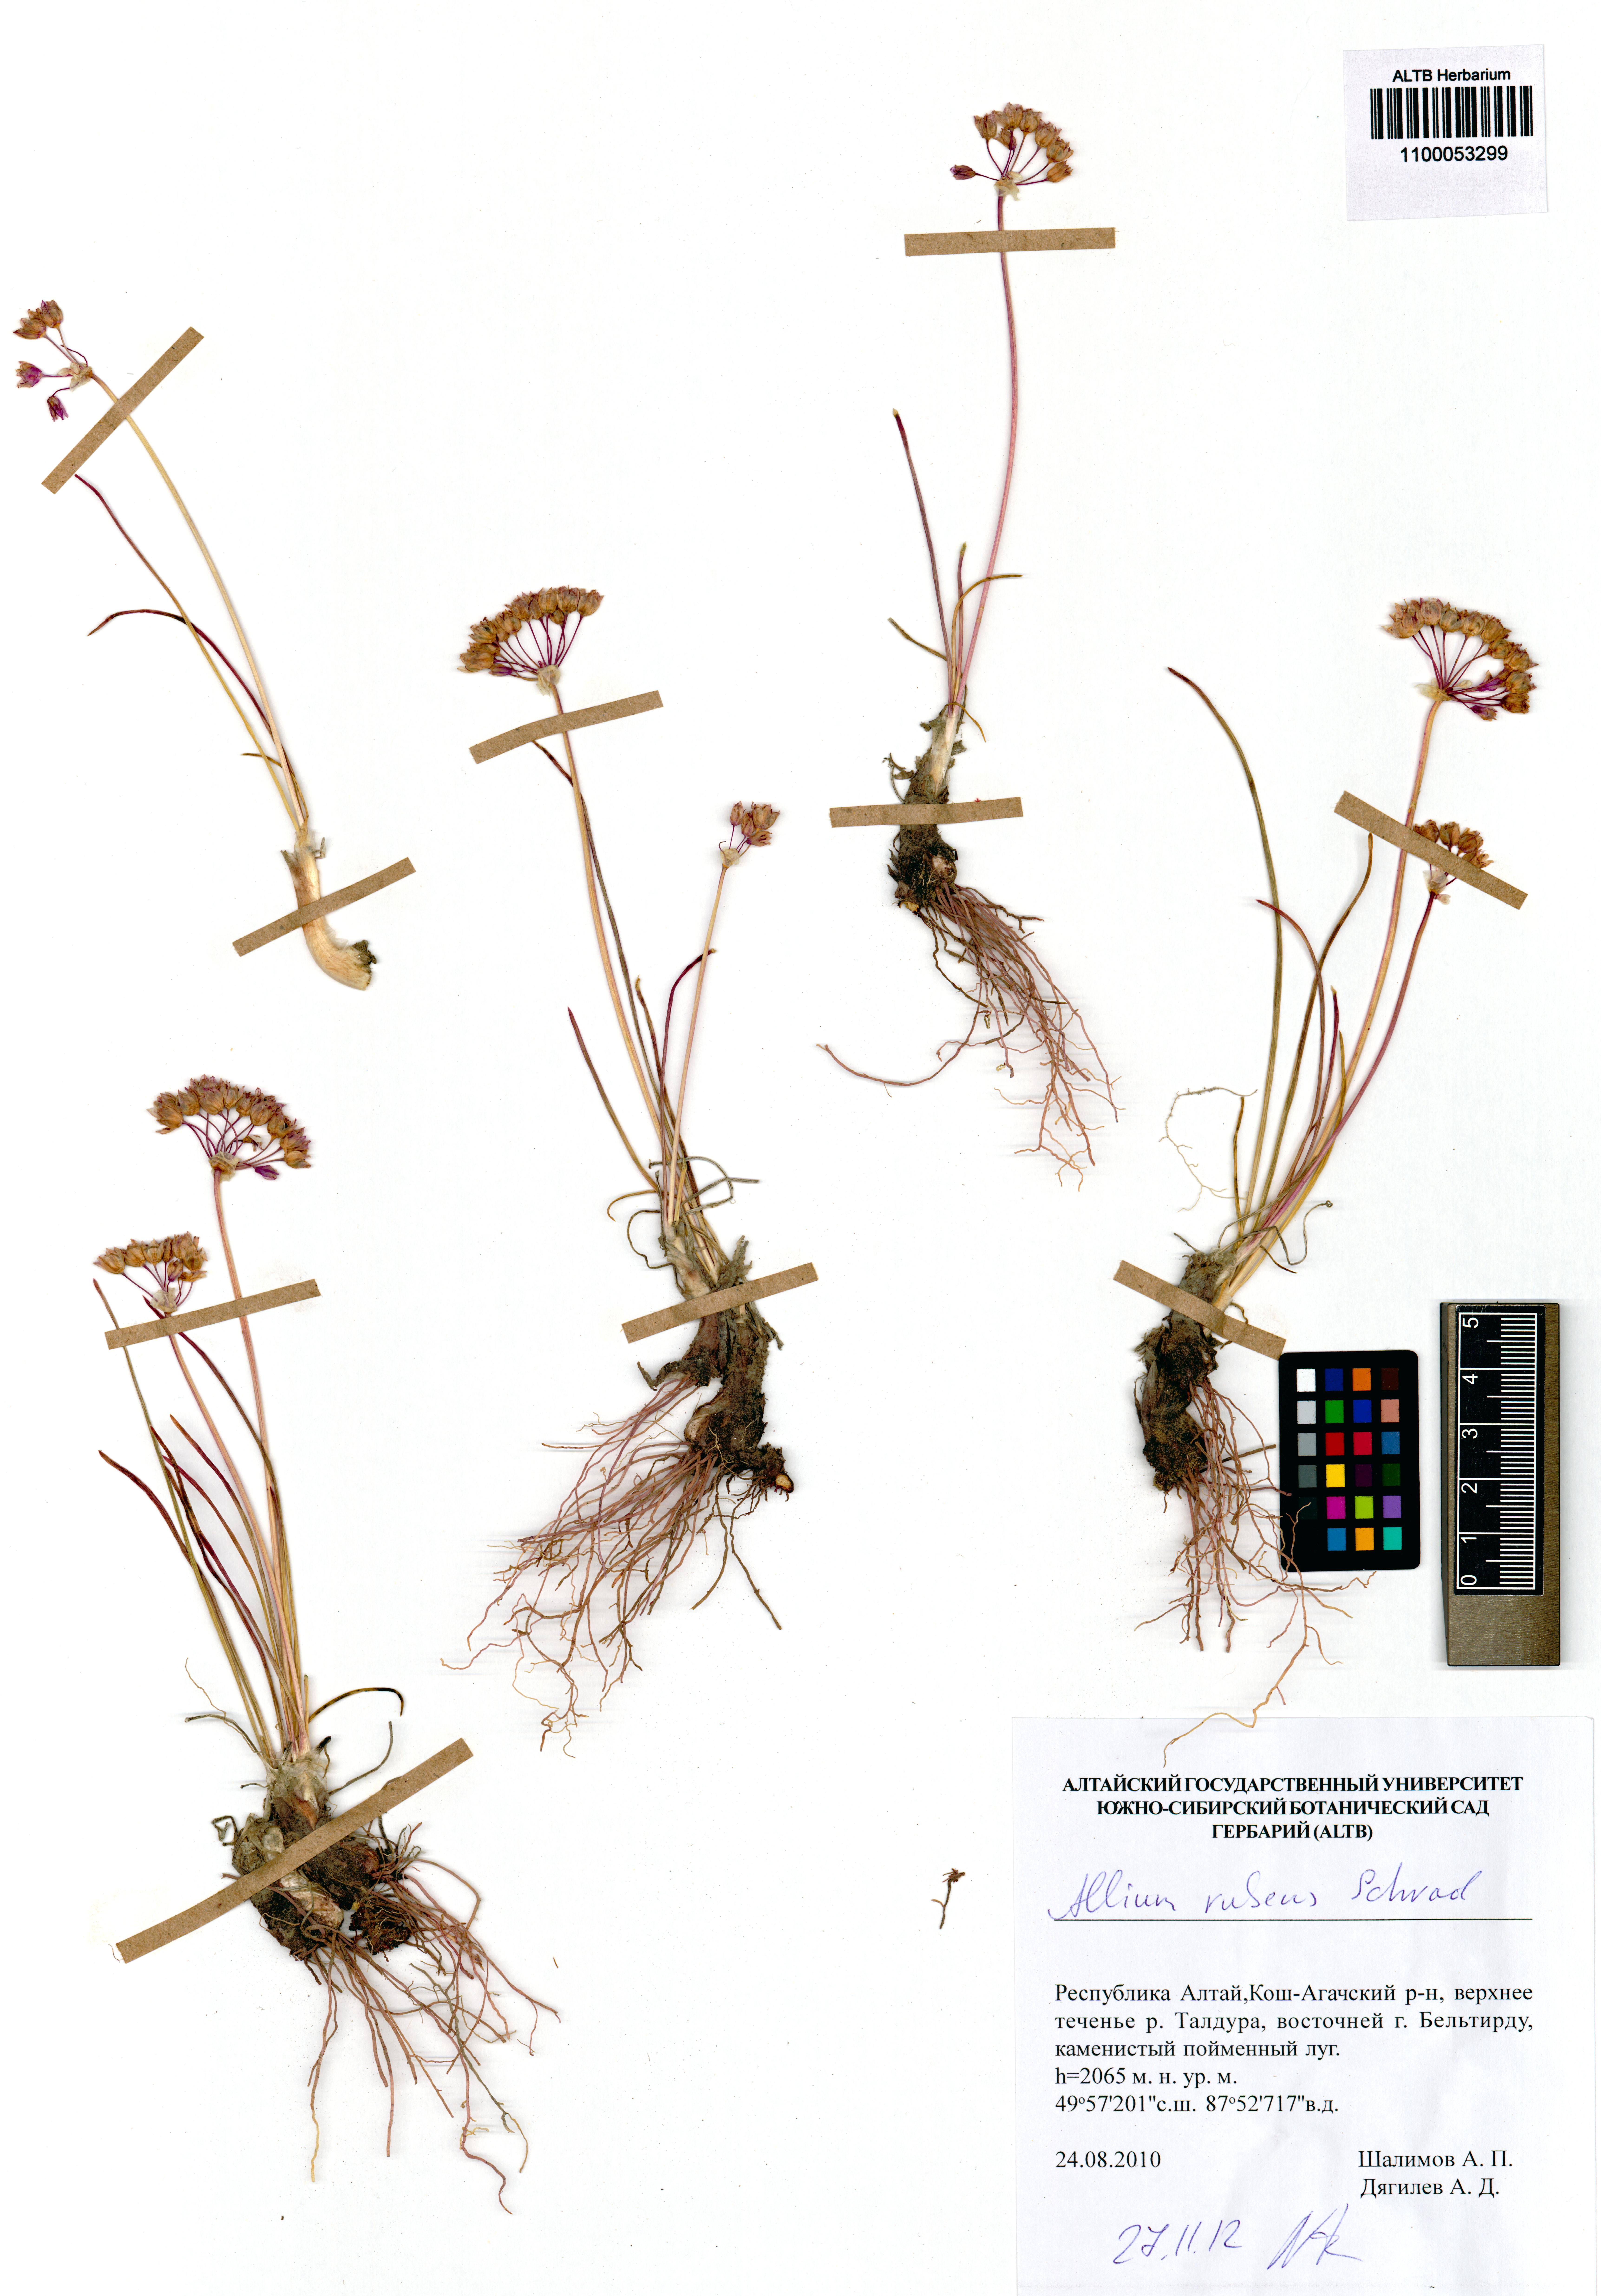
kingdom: Plantae
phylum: Tracheophyta
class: Liliopsida
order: Asparagales
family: Amaryllidaceae
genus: Allium
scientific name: Allium rubens
